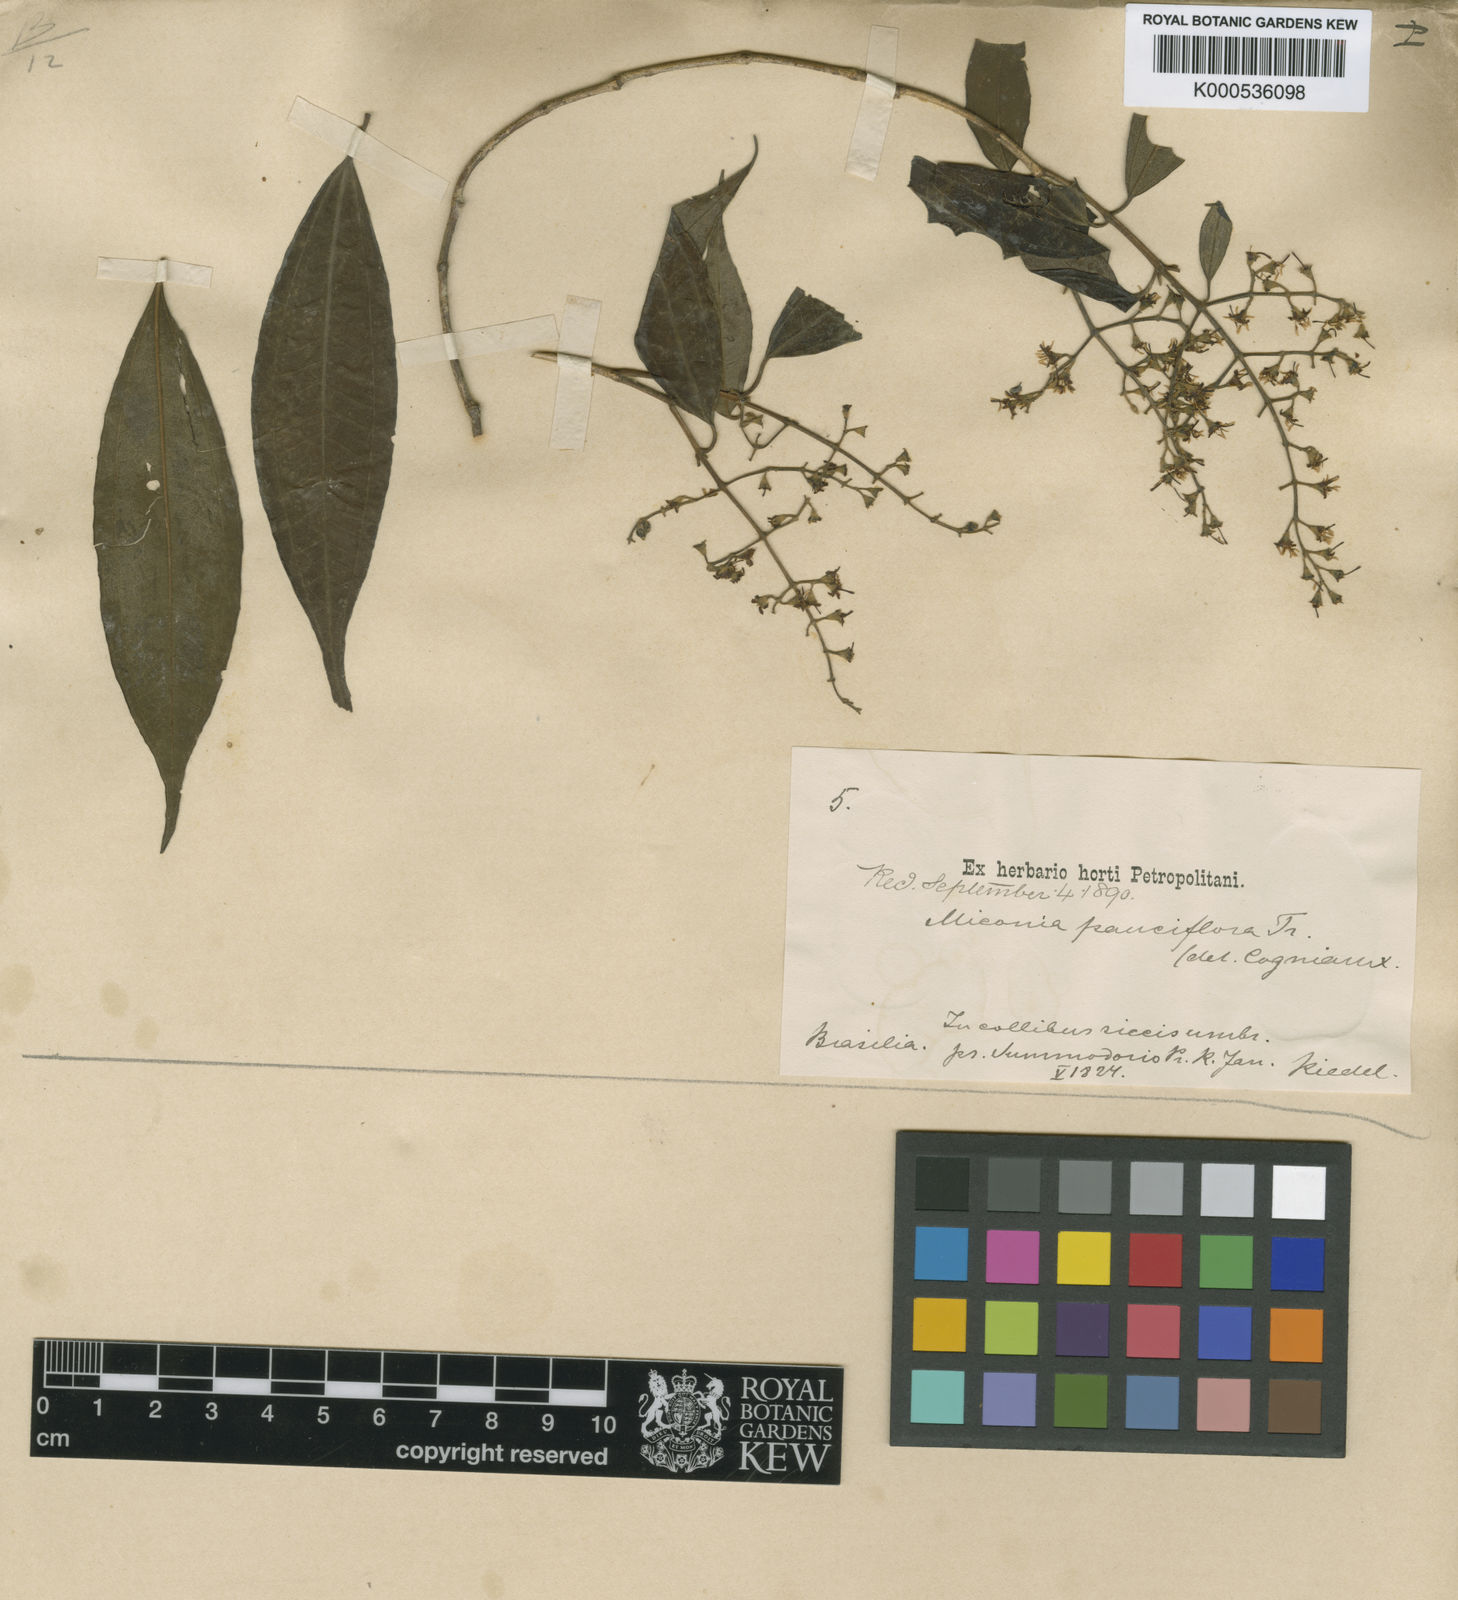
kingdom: Plantae
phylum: Tracheophyta
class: Magnoliopsida
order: Myrtales
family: Melastomataceae
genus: Miconia
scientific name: Miconia brasiliensis
